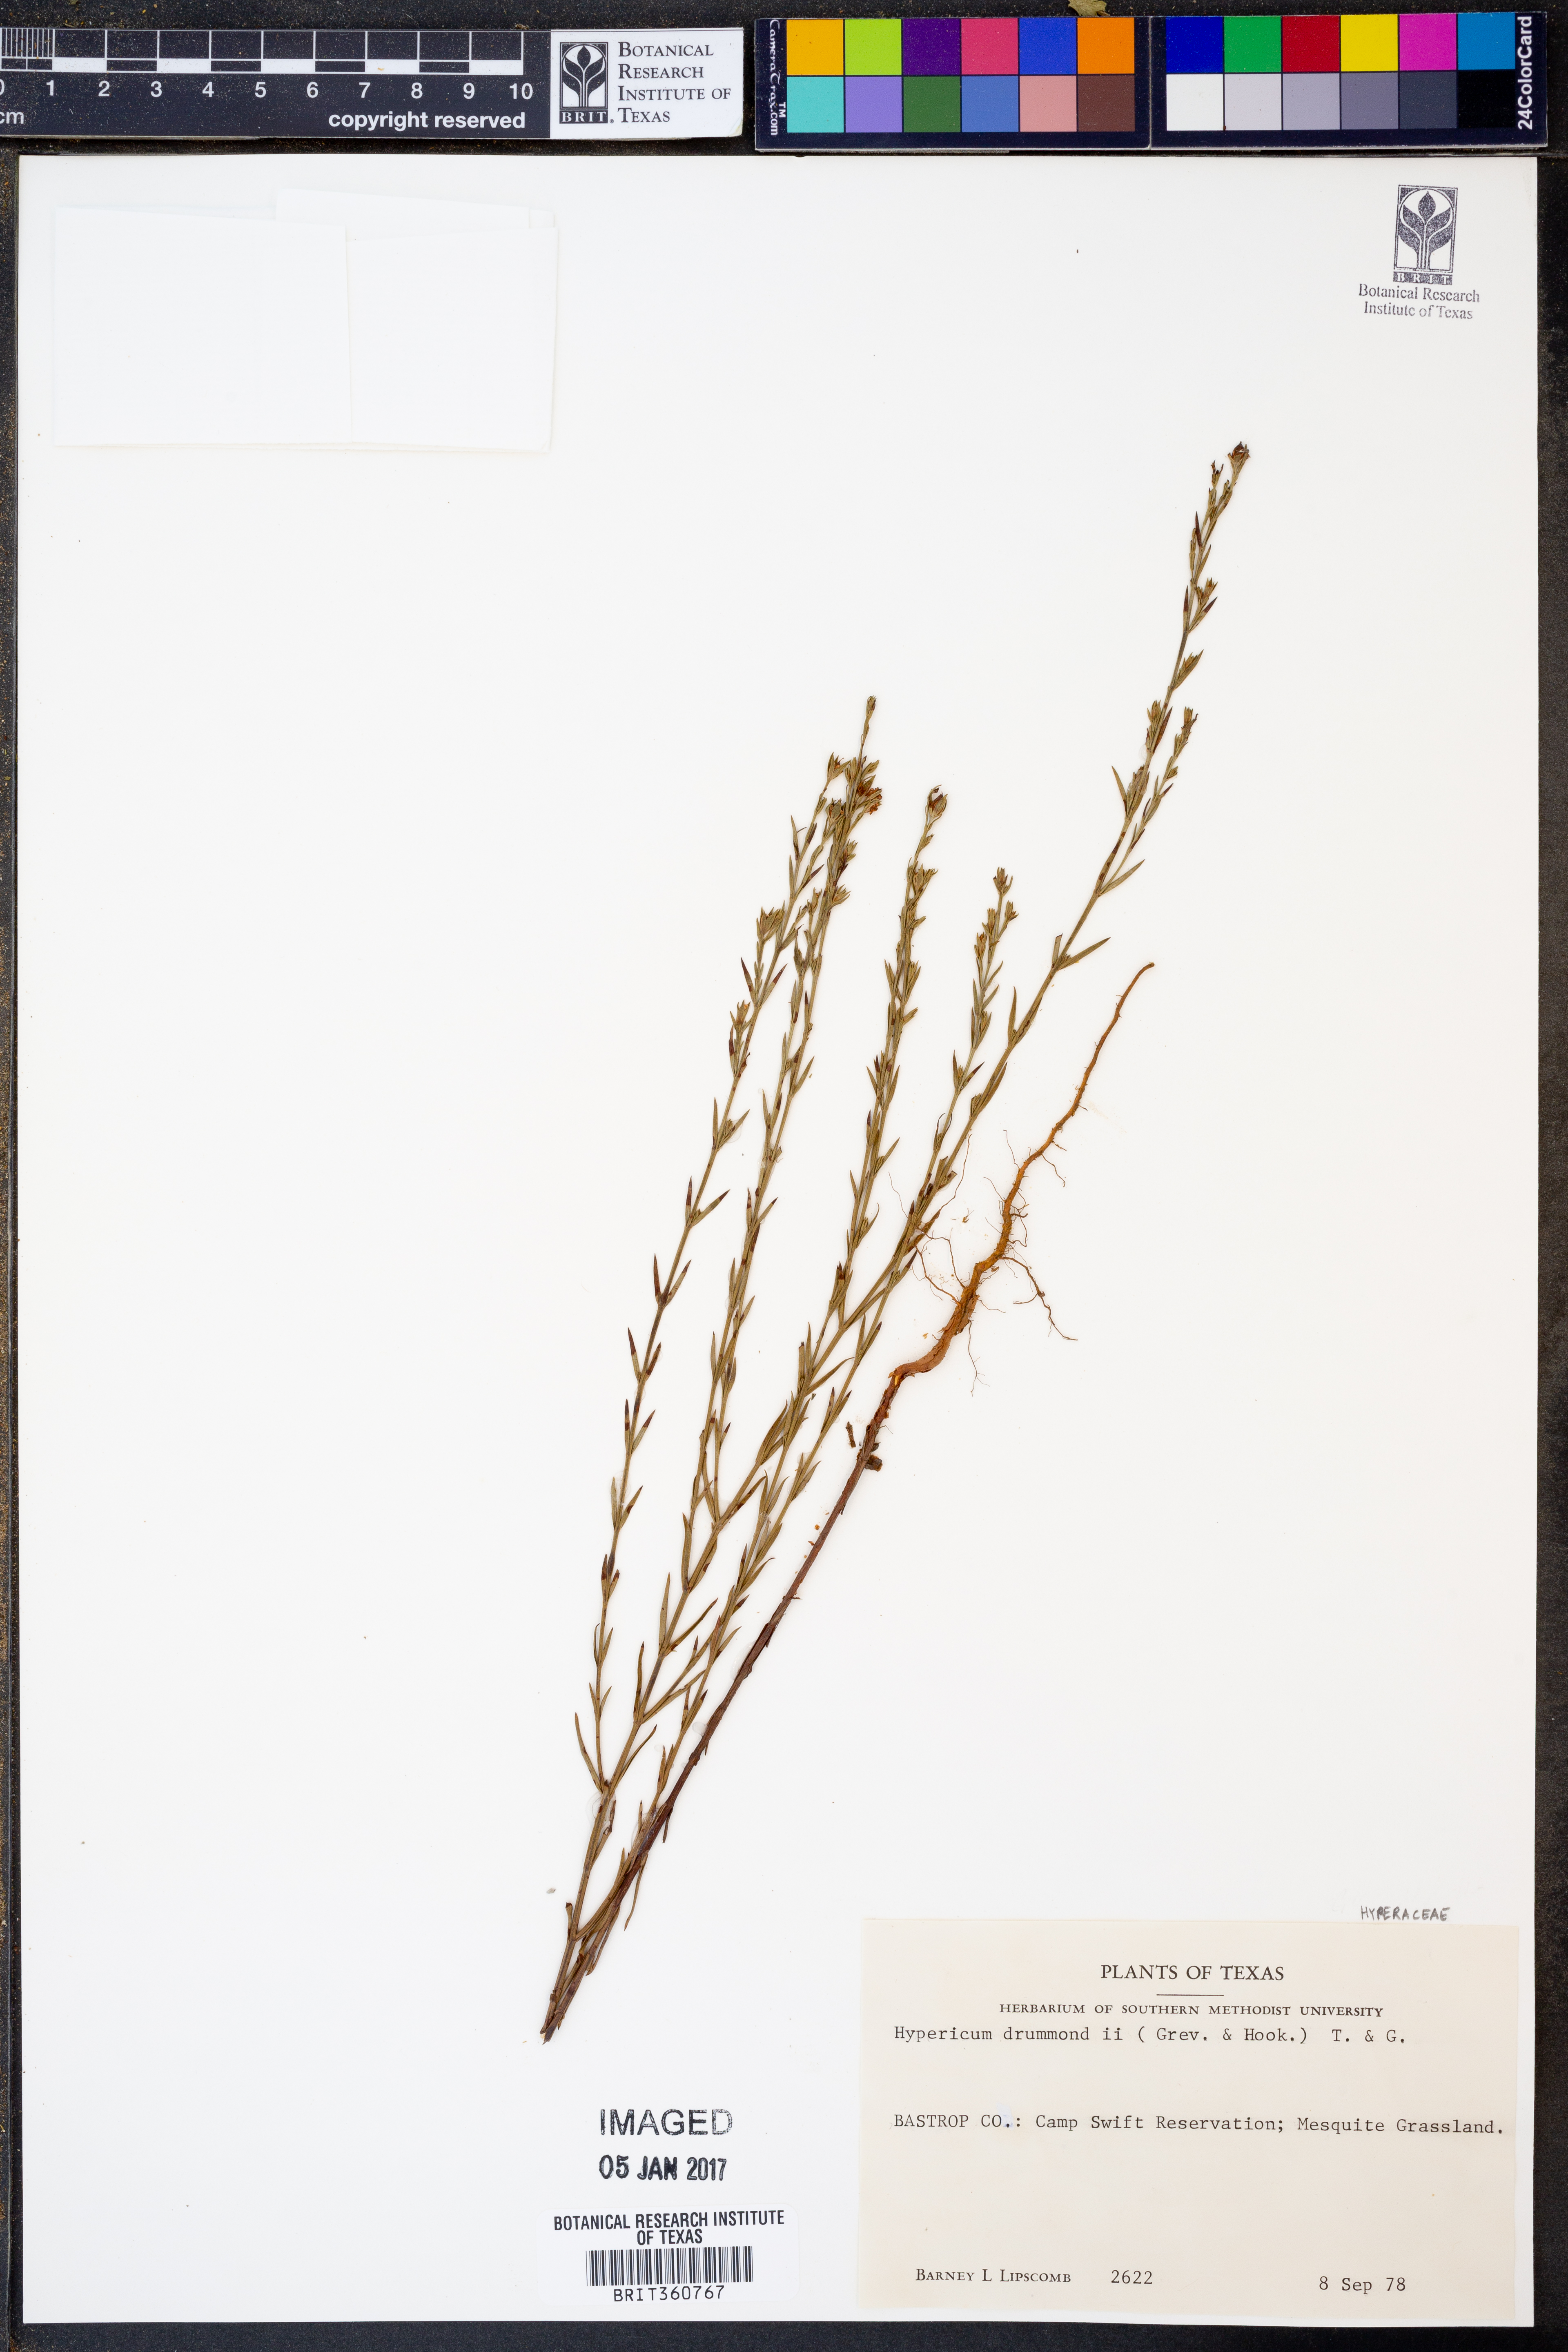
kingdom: Plantae
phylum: Tracheophyta
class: Magnoliopsida
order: Malpighiales
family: Hypericaceae
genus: Hypericum
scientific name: Hypericum drummondii
